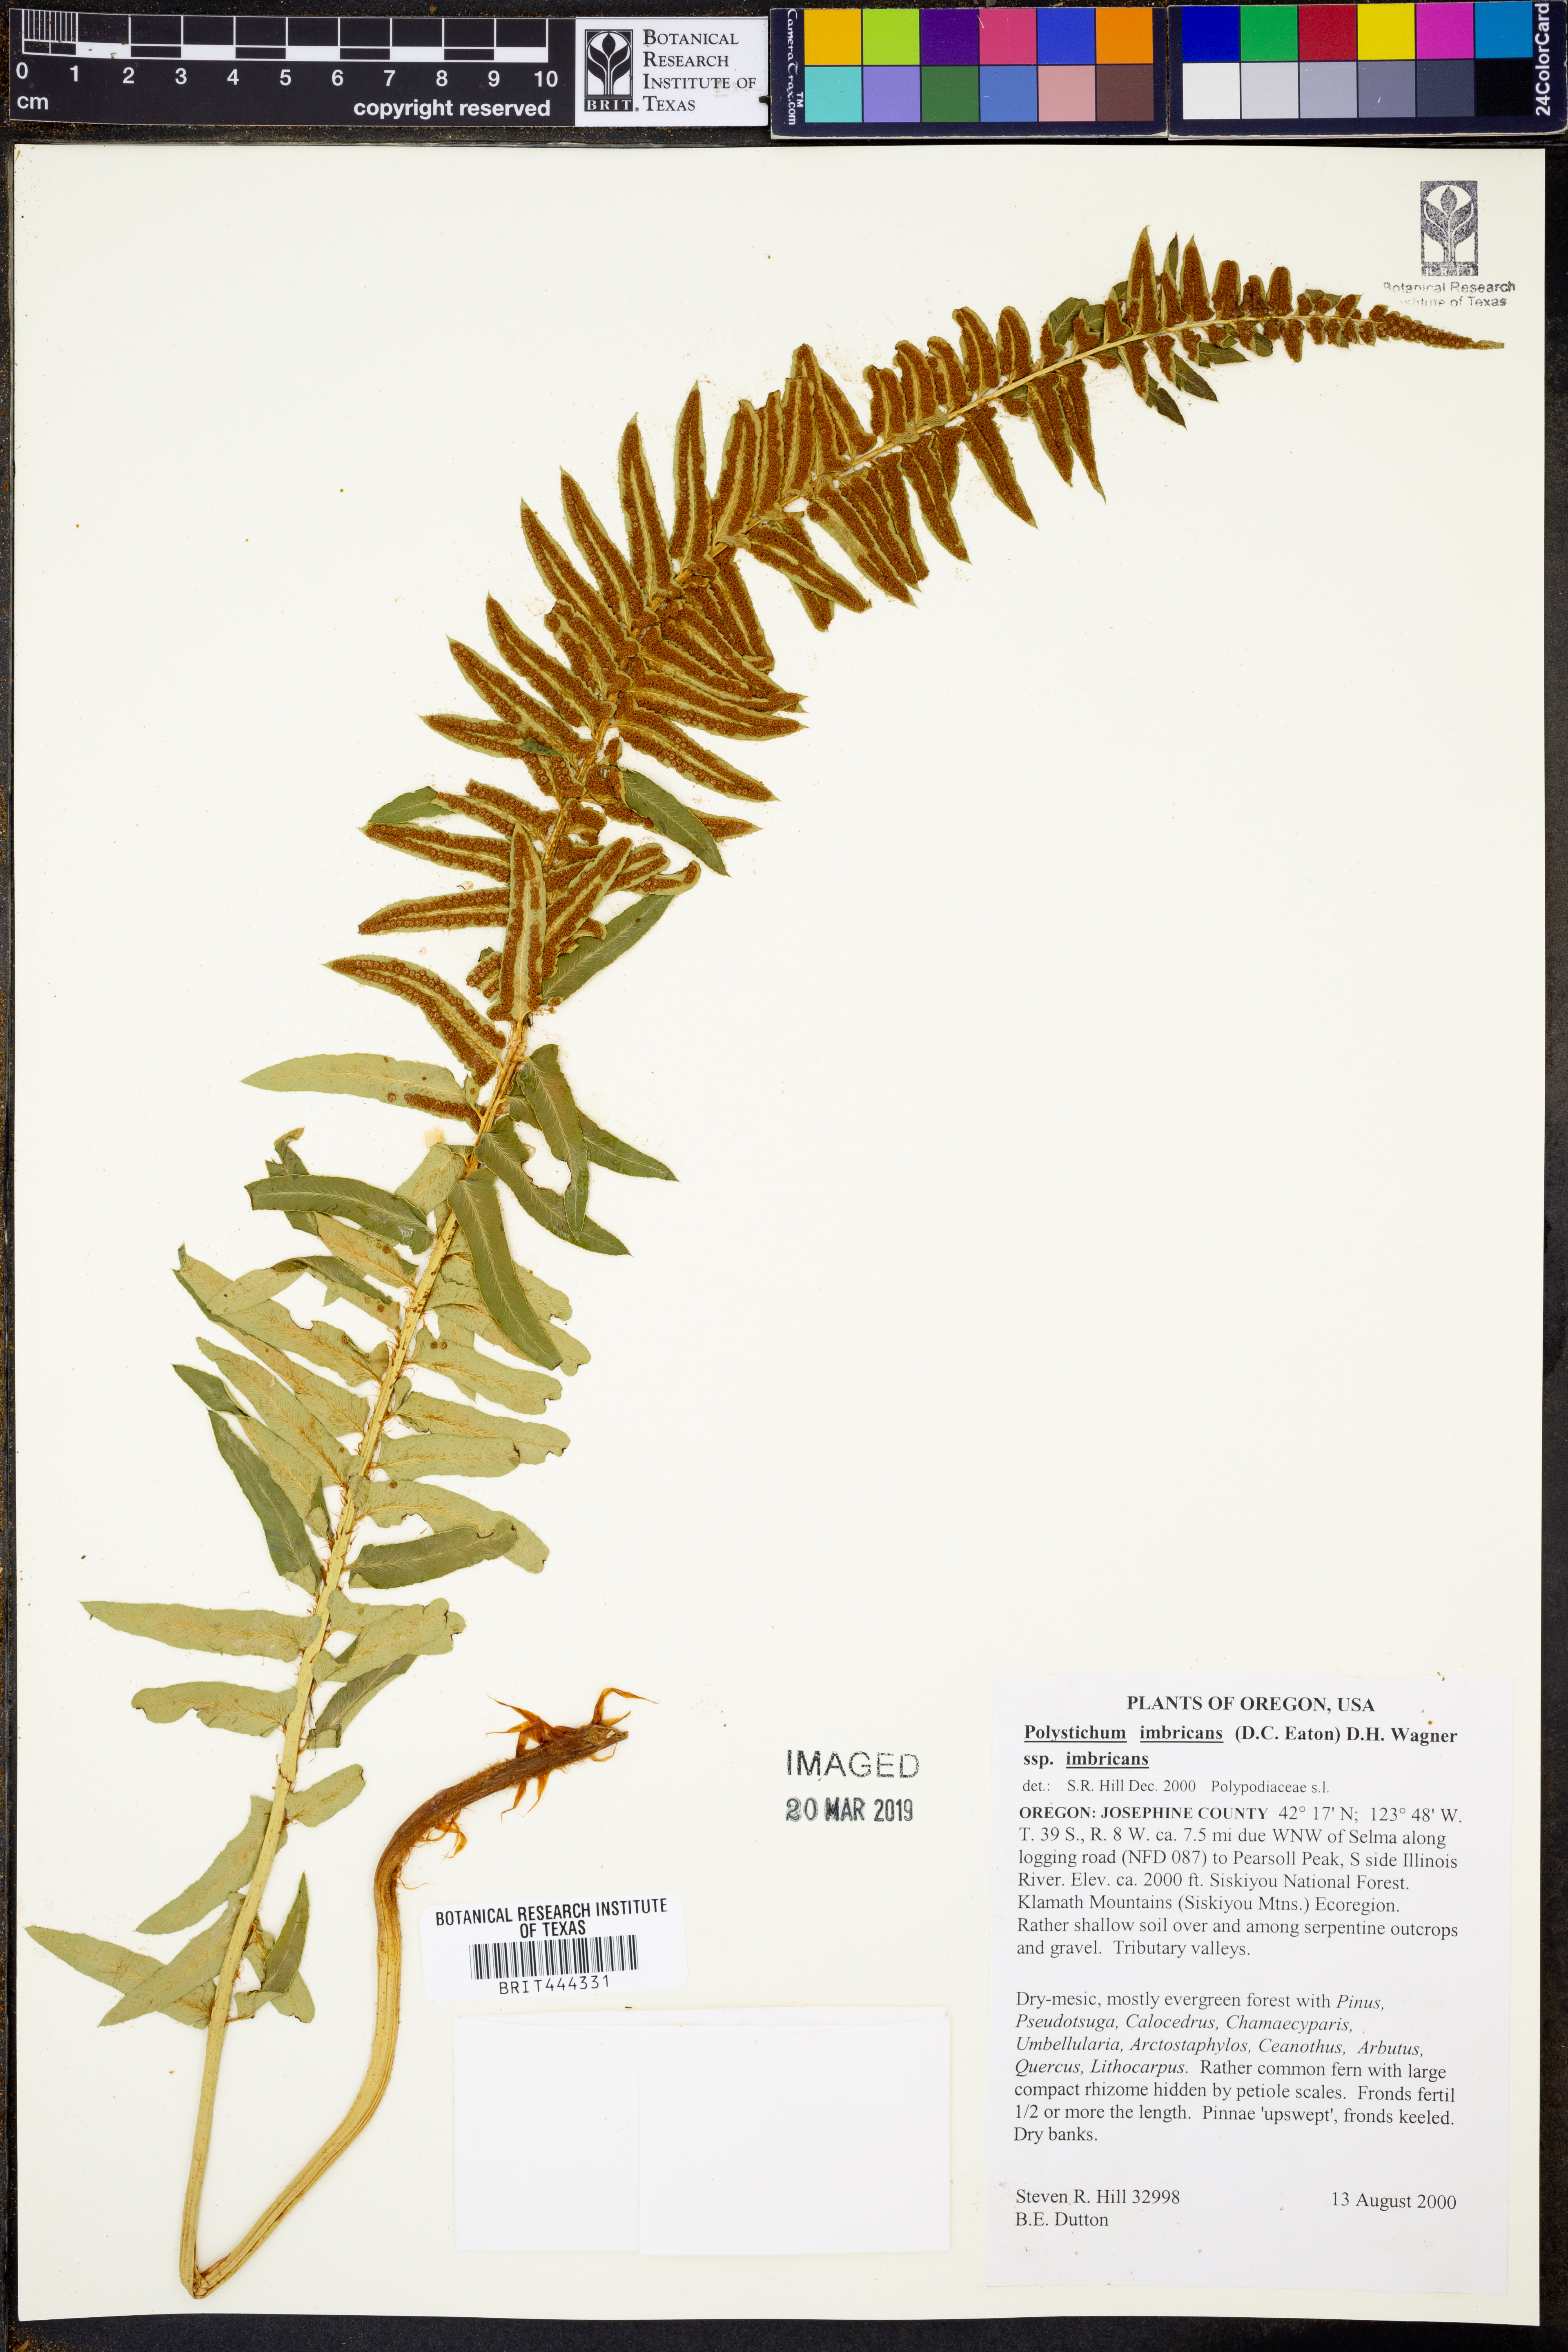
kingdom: Plantae
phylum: Tracheophyta
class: Polypodiopsida
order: Polypodiales
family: Dryopteridaceae
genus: Polystichum
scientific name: Polystichum imbricans
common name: Dwarf western sword fern
